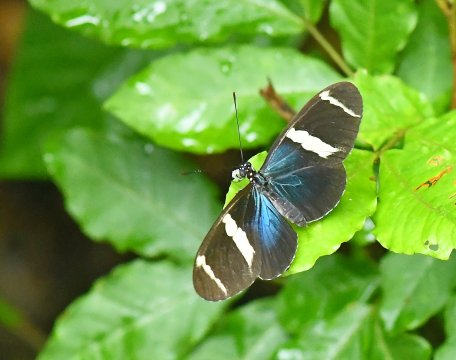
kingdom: Animalia
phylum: Arthropoda
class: Insecta
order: Lepidoptera
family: Nymphalidae
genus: Heliconius
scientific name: Heliconius sara
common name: Sara Longwing
